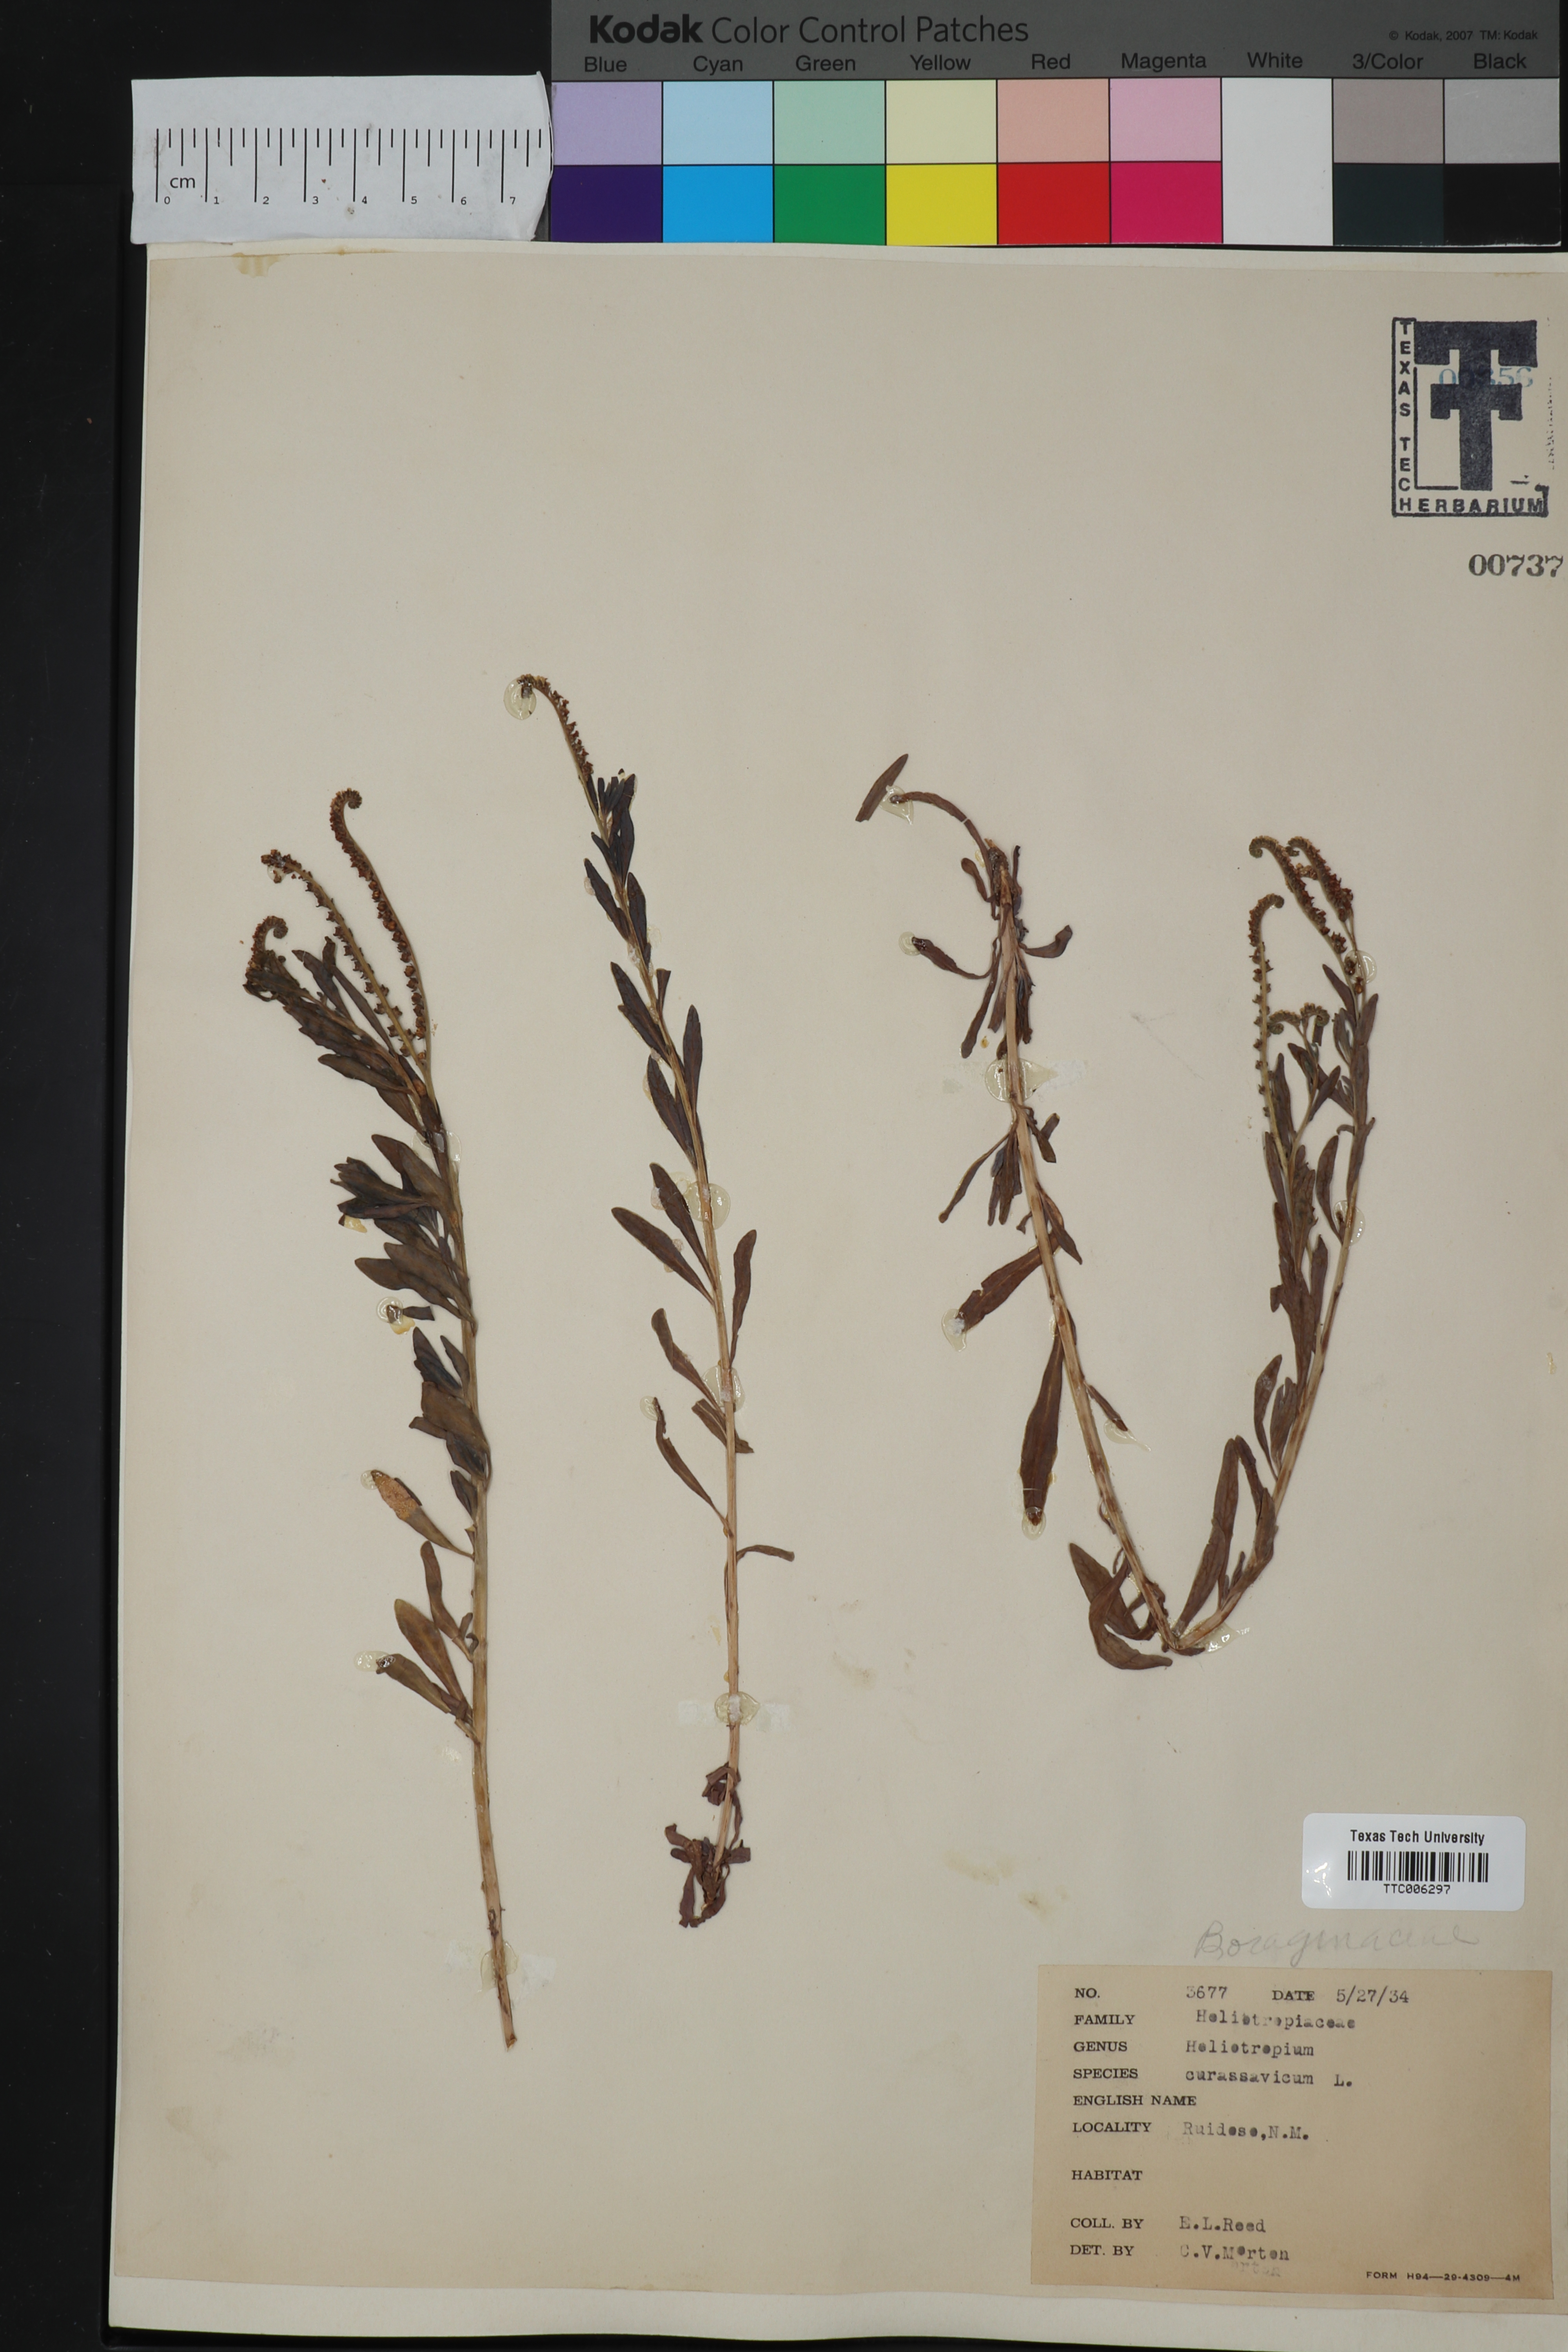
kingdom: Plantae
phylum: Tracheophyta
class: Magnoliopsida
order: Boraginales
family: Heliotropiaceae
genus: Heliotropium
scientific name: Heliotropium curassavicum
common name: Seaside heliotrope
